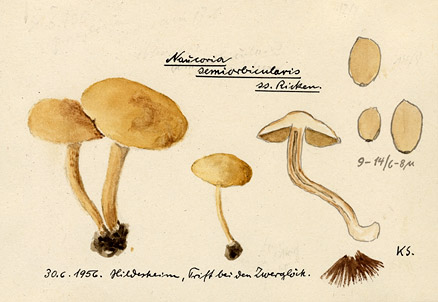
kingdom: Fungi
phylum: Basidiomycota
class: Agaricomycetes
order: Agaricales
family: Strophariaceae
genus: Agrocybe
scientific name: Agrocybe pediades
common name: Common fieldcap
